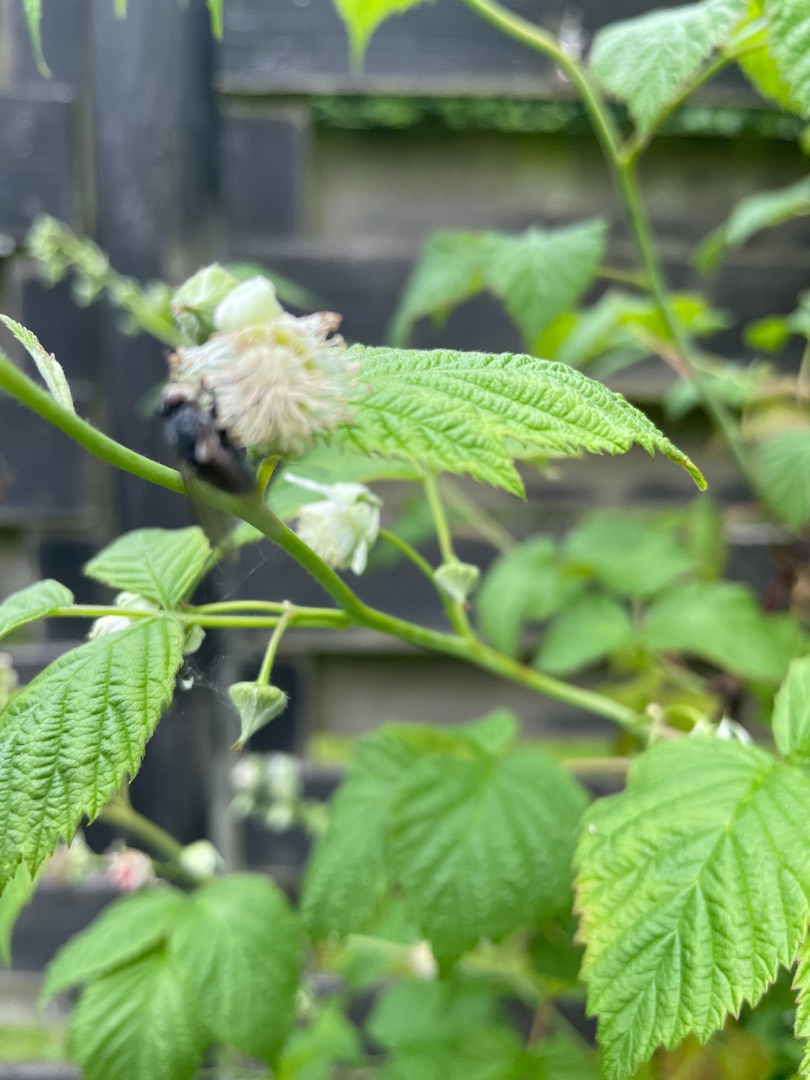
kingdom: Plantae
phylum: Tracheophyta
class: Magnoliopsida
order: Rosales
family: Rosaceae
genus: Rubus
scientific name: Rubus idaeus
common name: Hindbær
